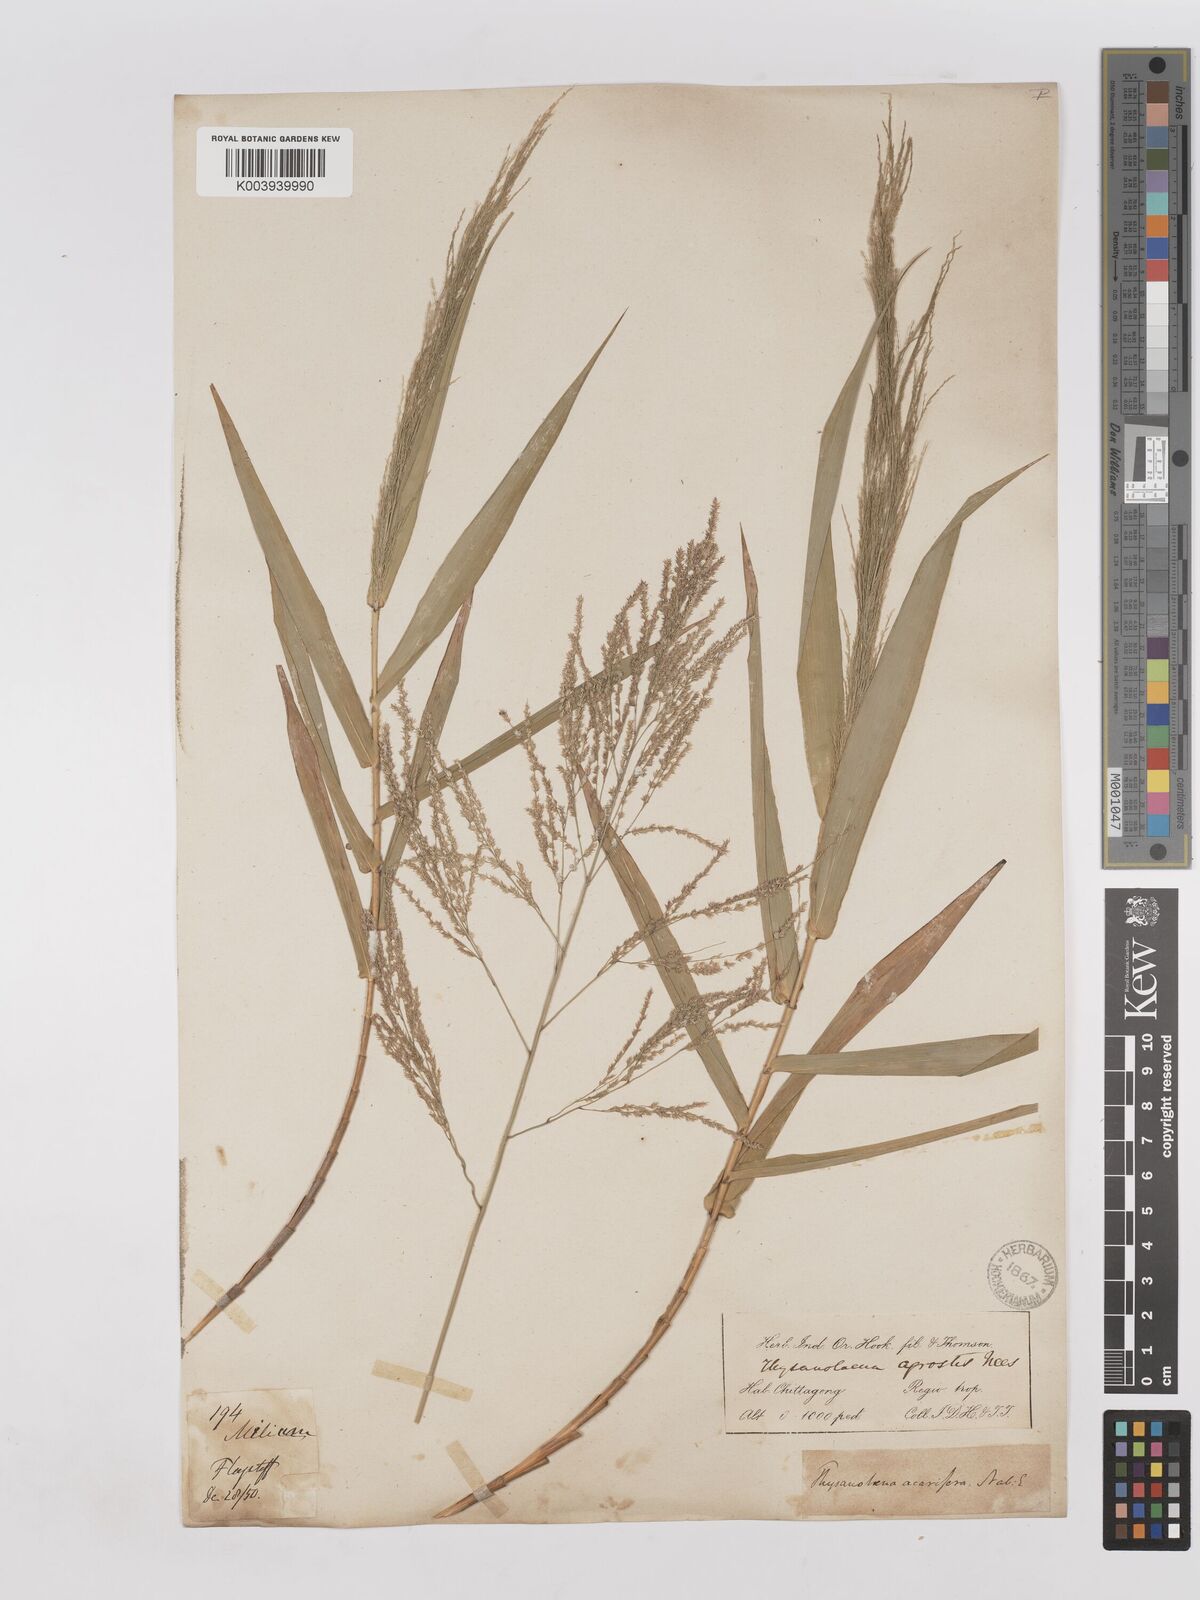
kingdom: Plantae
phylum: Tracheophyta
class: Liliopsida
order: Poales
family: Poaceae
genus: Thysanolaena
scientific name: Thysanolaena latifolia
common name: Tiger grass
